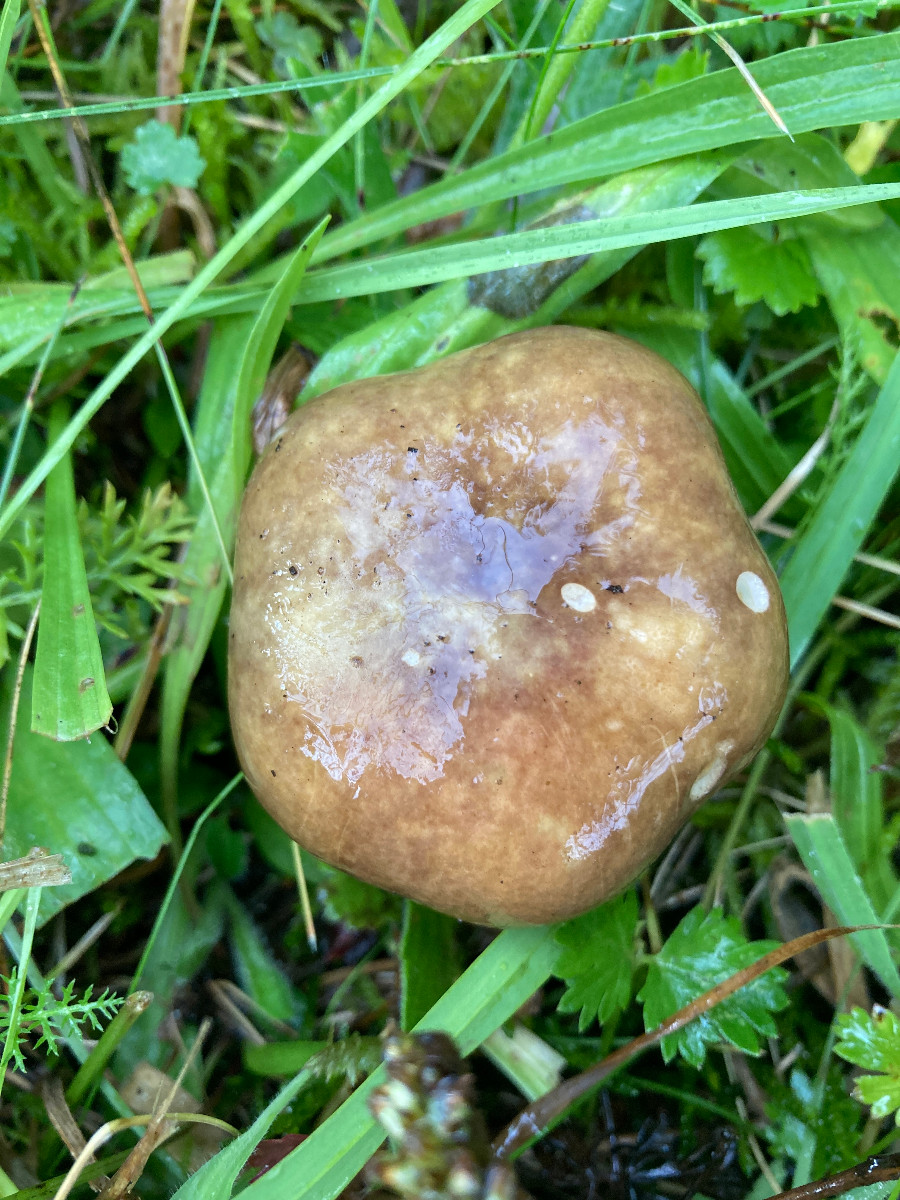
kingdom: Fungi
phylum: Basidiomycota
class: Agaricomycetes
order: Russulales
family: Russulaceae
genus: Russula
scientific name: Russula queletii
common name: Quélets skørhat
